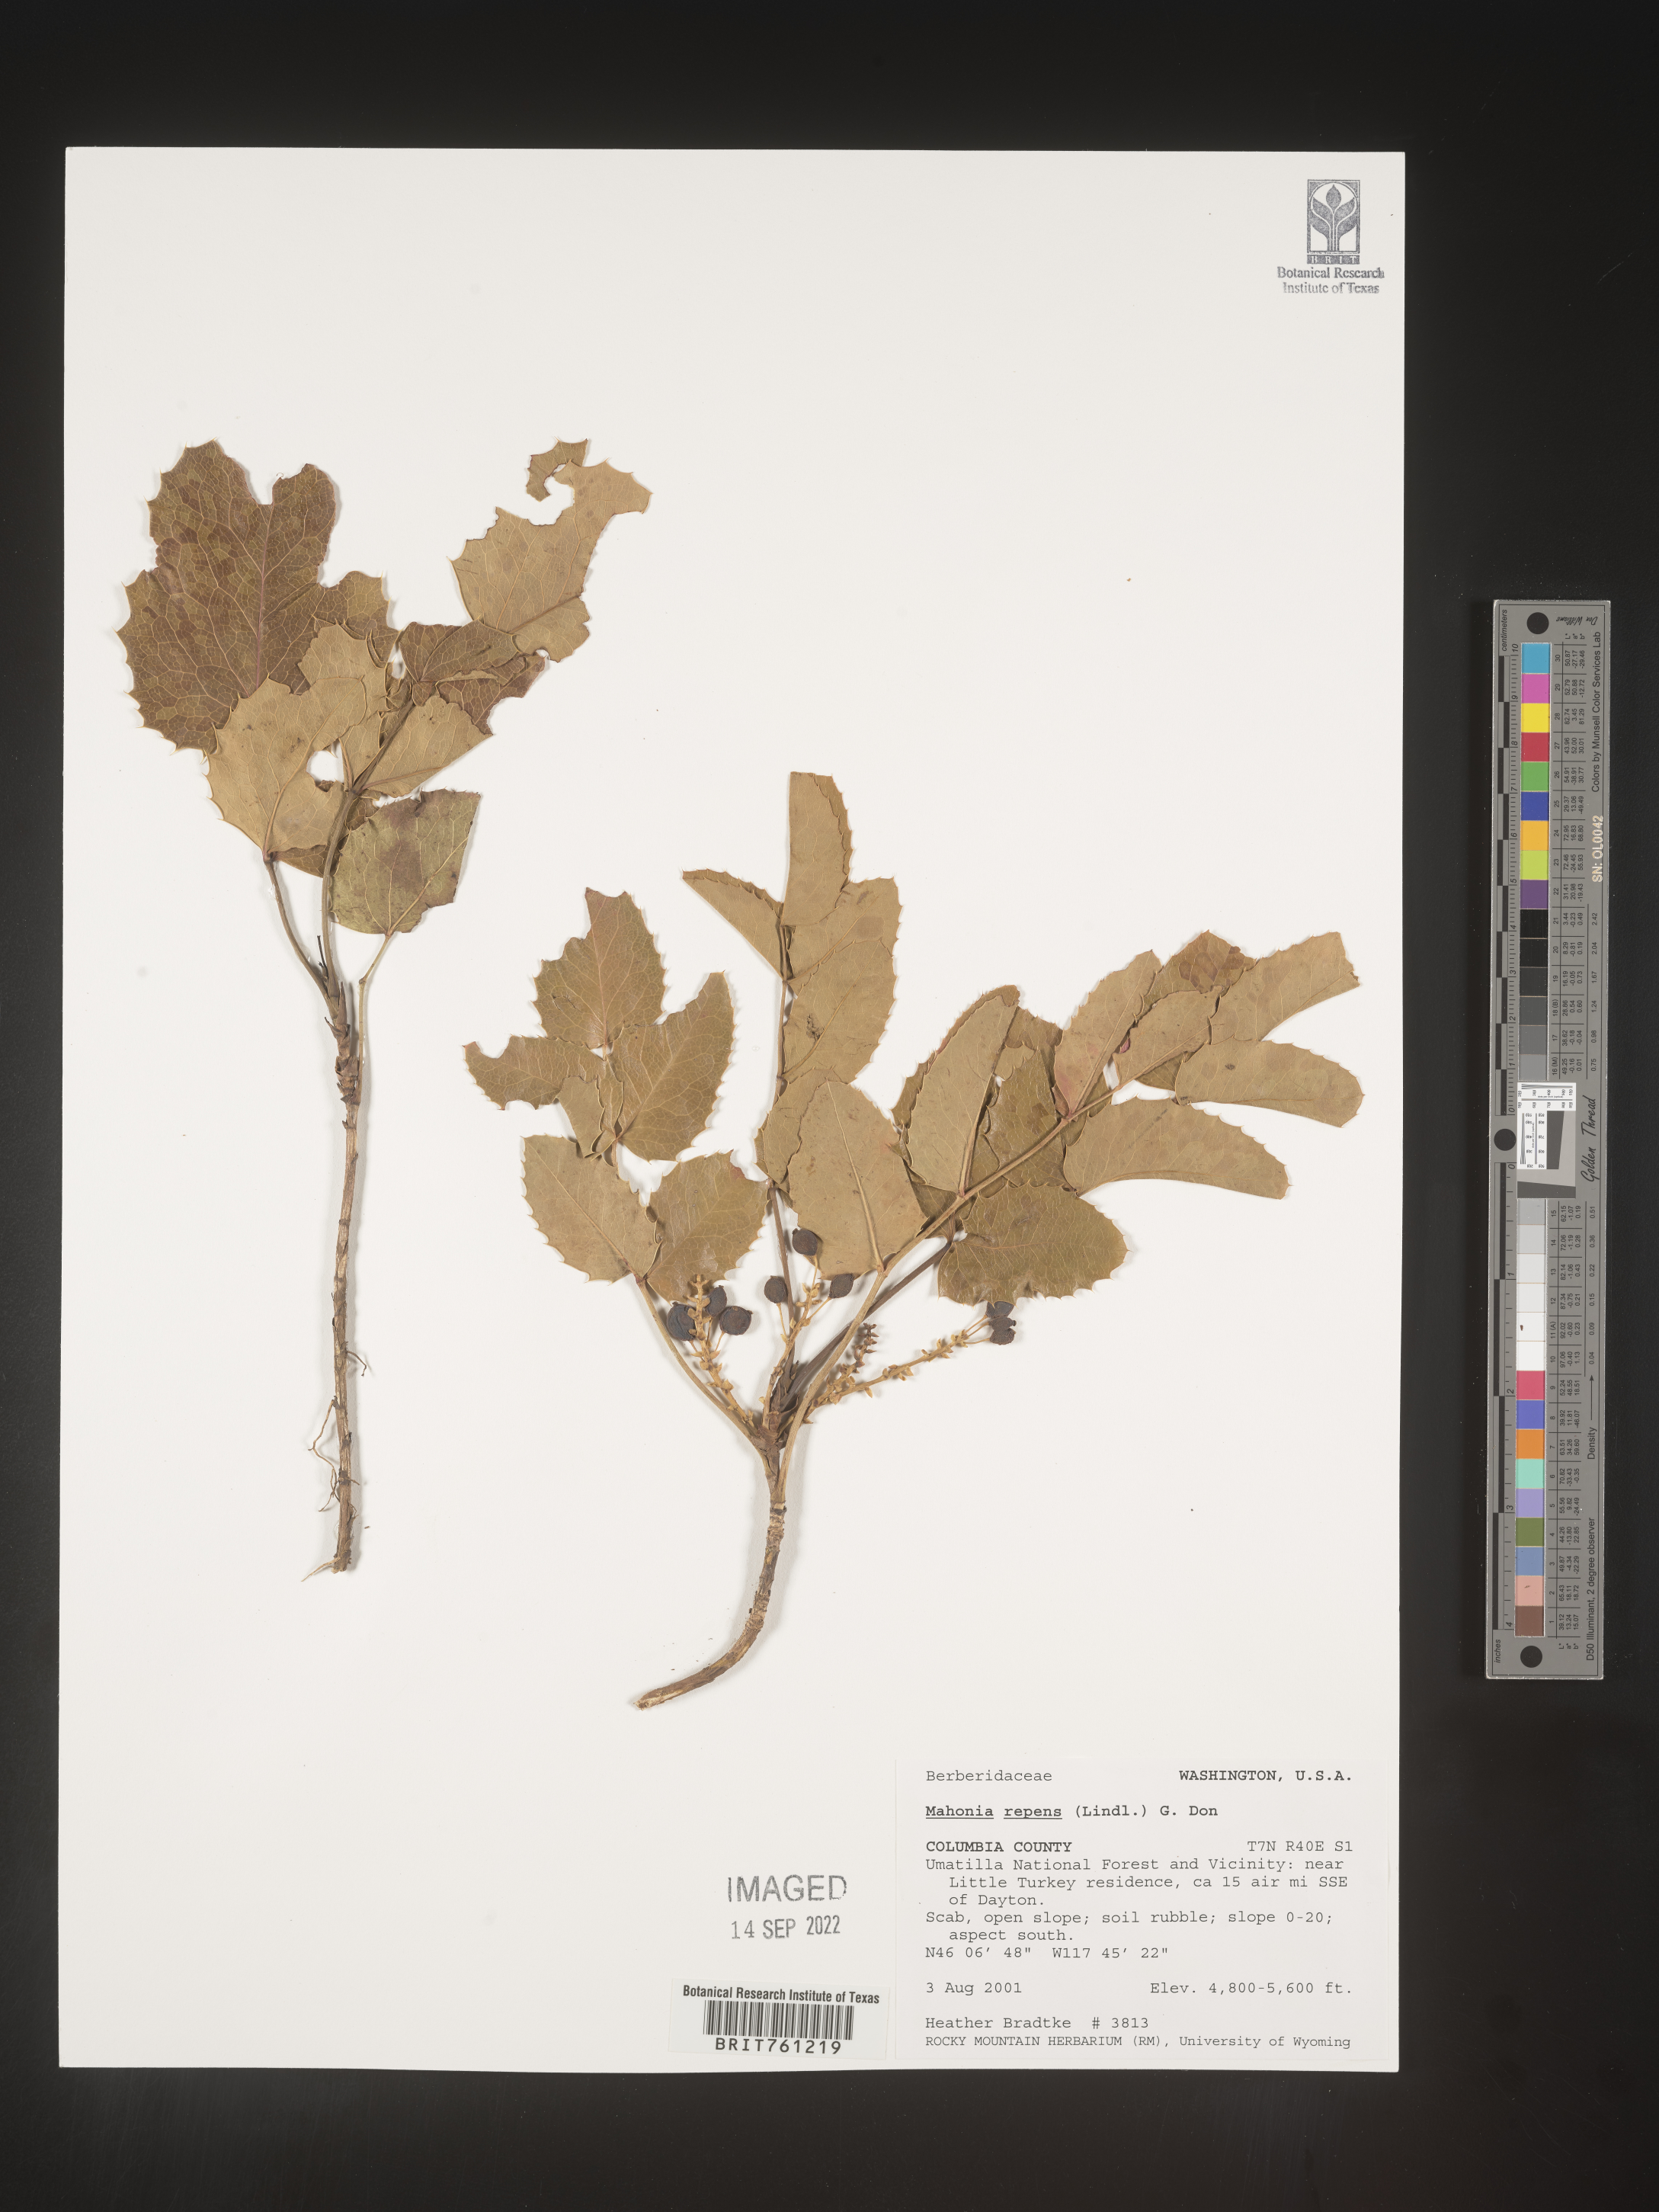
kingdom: Plantae
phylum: Tracheophyta
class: Magnoliopsida
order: Ranunculales
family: Berberidaceae
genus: Mahonia
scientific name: Mahonia repens
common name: Creeping oregon-grape
